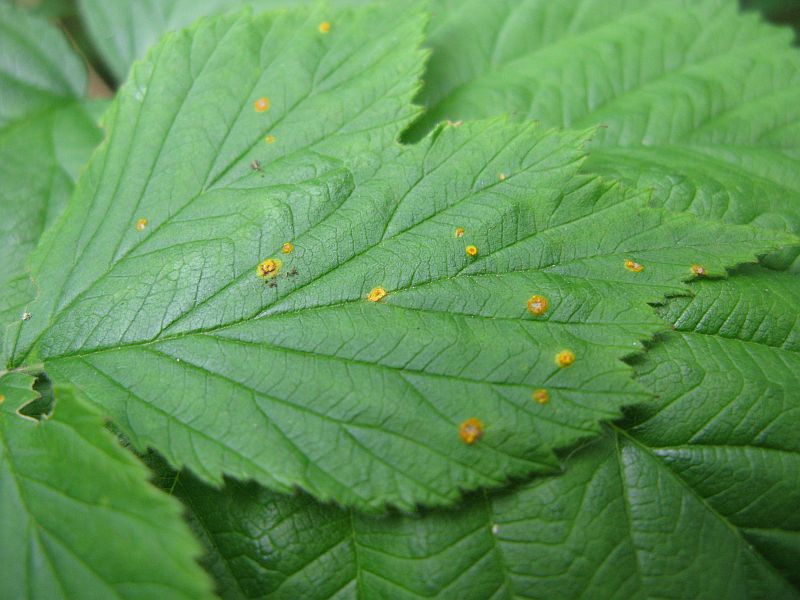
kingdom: Fungi
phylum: Basidiomycota
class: Pucciniomycetes
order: Pucciniales
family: Phragmidiaceae
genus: Phragmidium
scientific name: Phragmidium rubi-idaei
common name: hindbær-flercellerust
